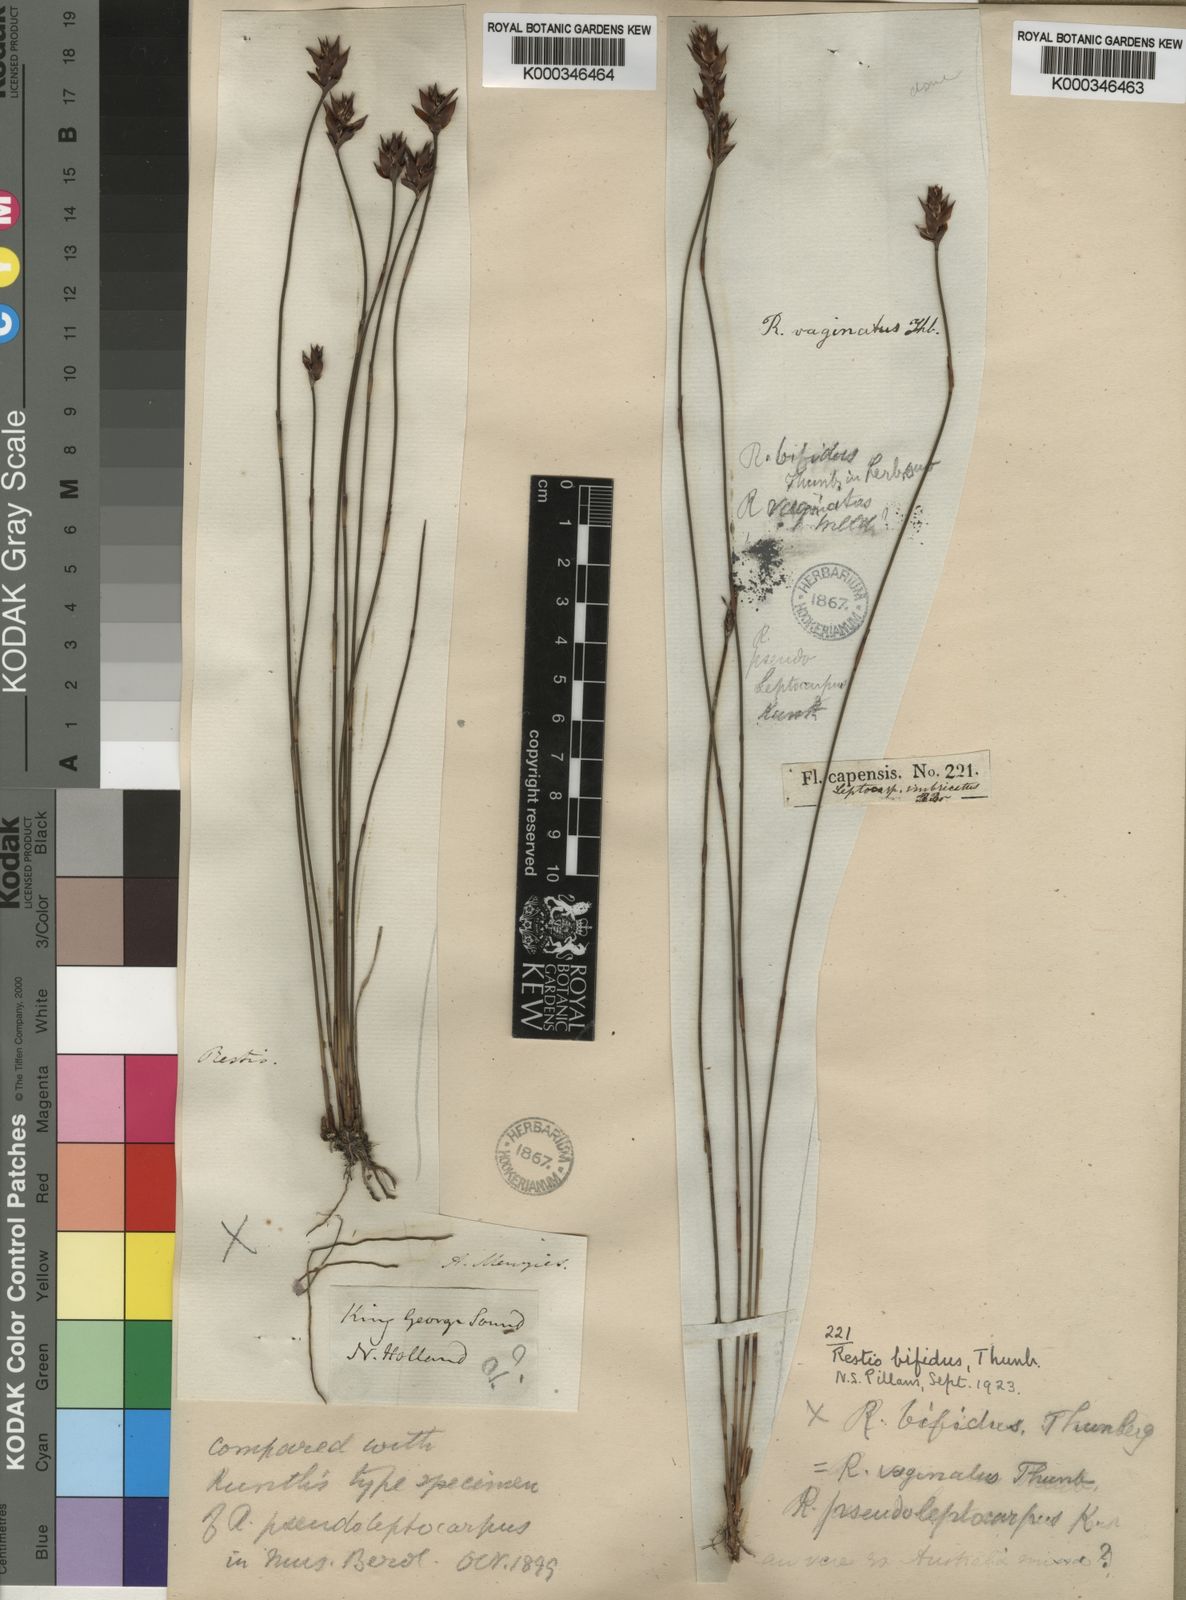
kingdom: Plantae
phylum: Tracheophyta
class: Liliopsida
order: Poales
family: Restionaceae
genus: Restio
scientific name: Restio bifidus
